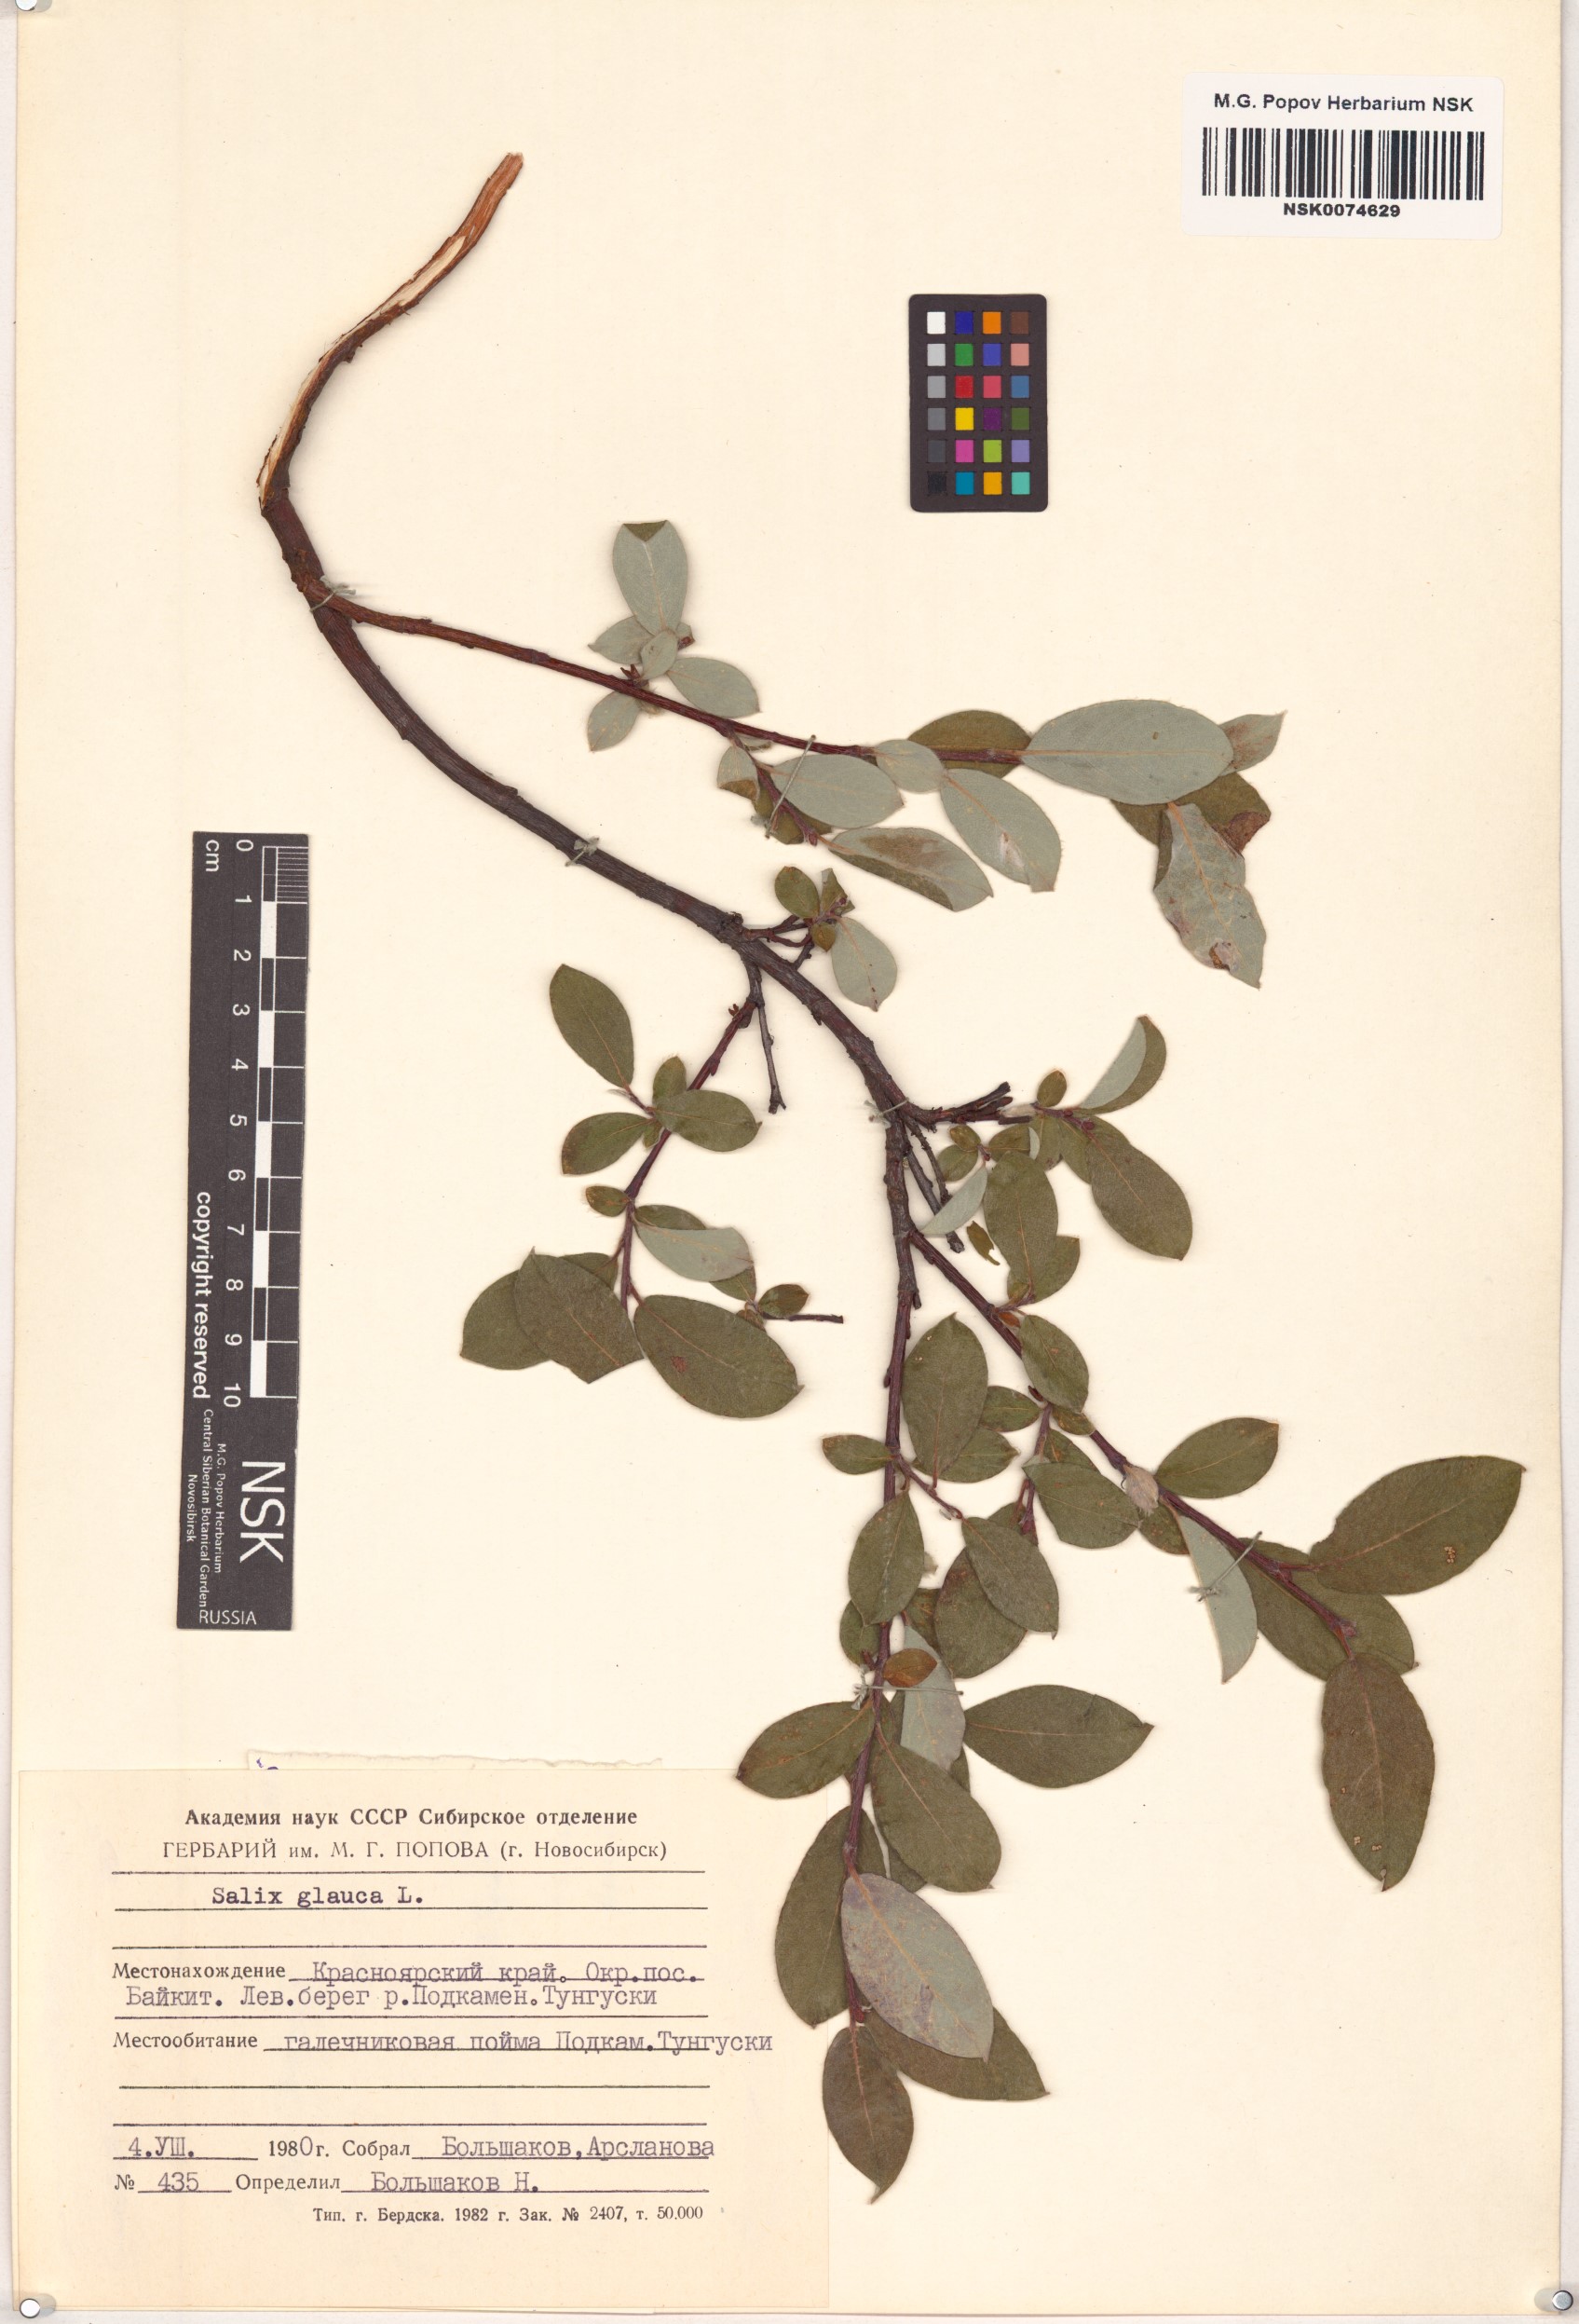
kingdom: Plantae
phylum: Tracheophyta
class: Magnoliopsida
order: Malpighiales
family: Salicaceae
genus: Salix
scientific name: Salix glauca
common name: Glaucous willow
